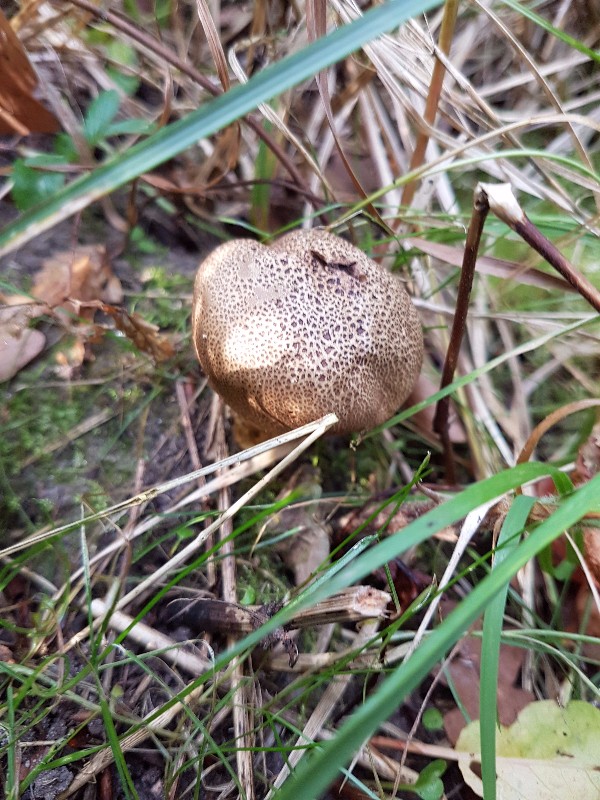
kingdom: Fungi
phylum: Basidiomycota
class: Agaricomycetes
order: Boletales
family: Sclerodermataceae
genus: Scleroderma
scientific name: Scleroderma verrucosum
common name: stilket bruskbold
